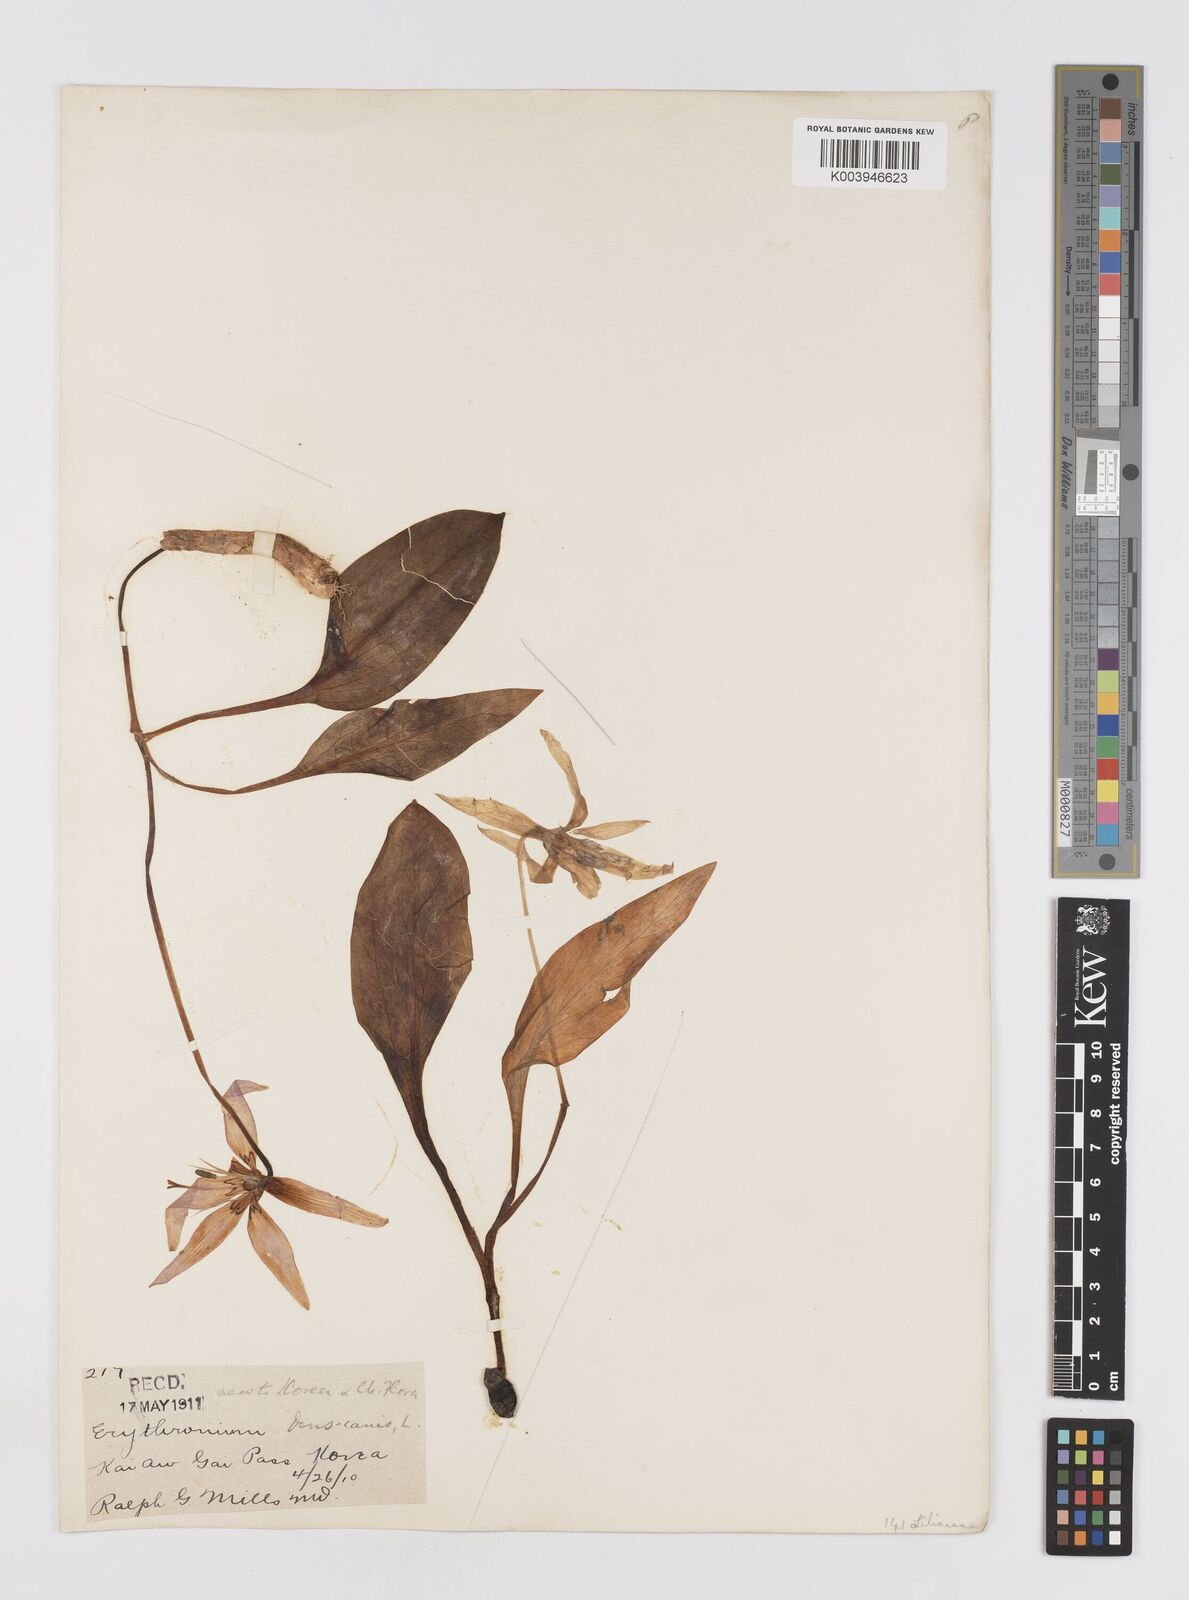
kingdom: Plantae
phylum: Tracheophyta
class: Liliopsida
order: Liliales
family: Liliaceae
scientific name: Liliaceae
